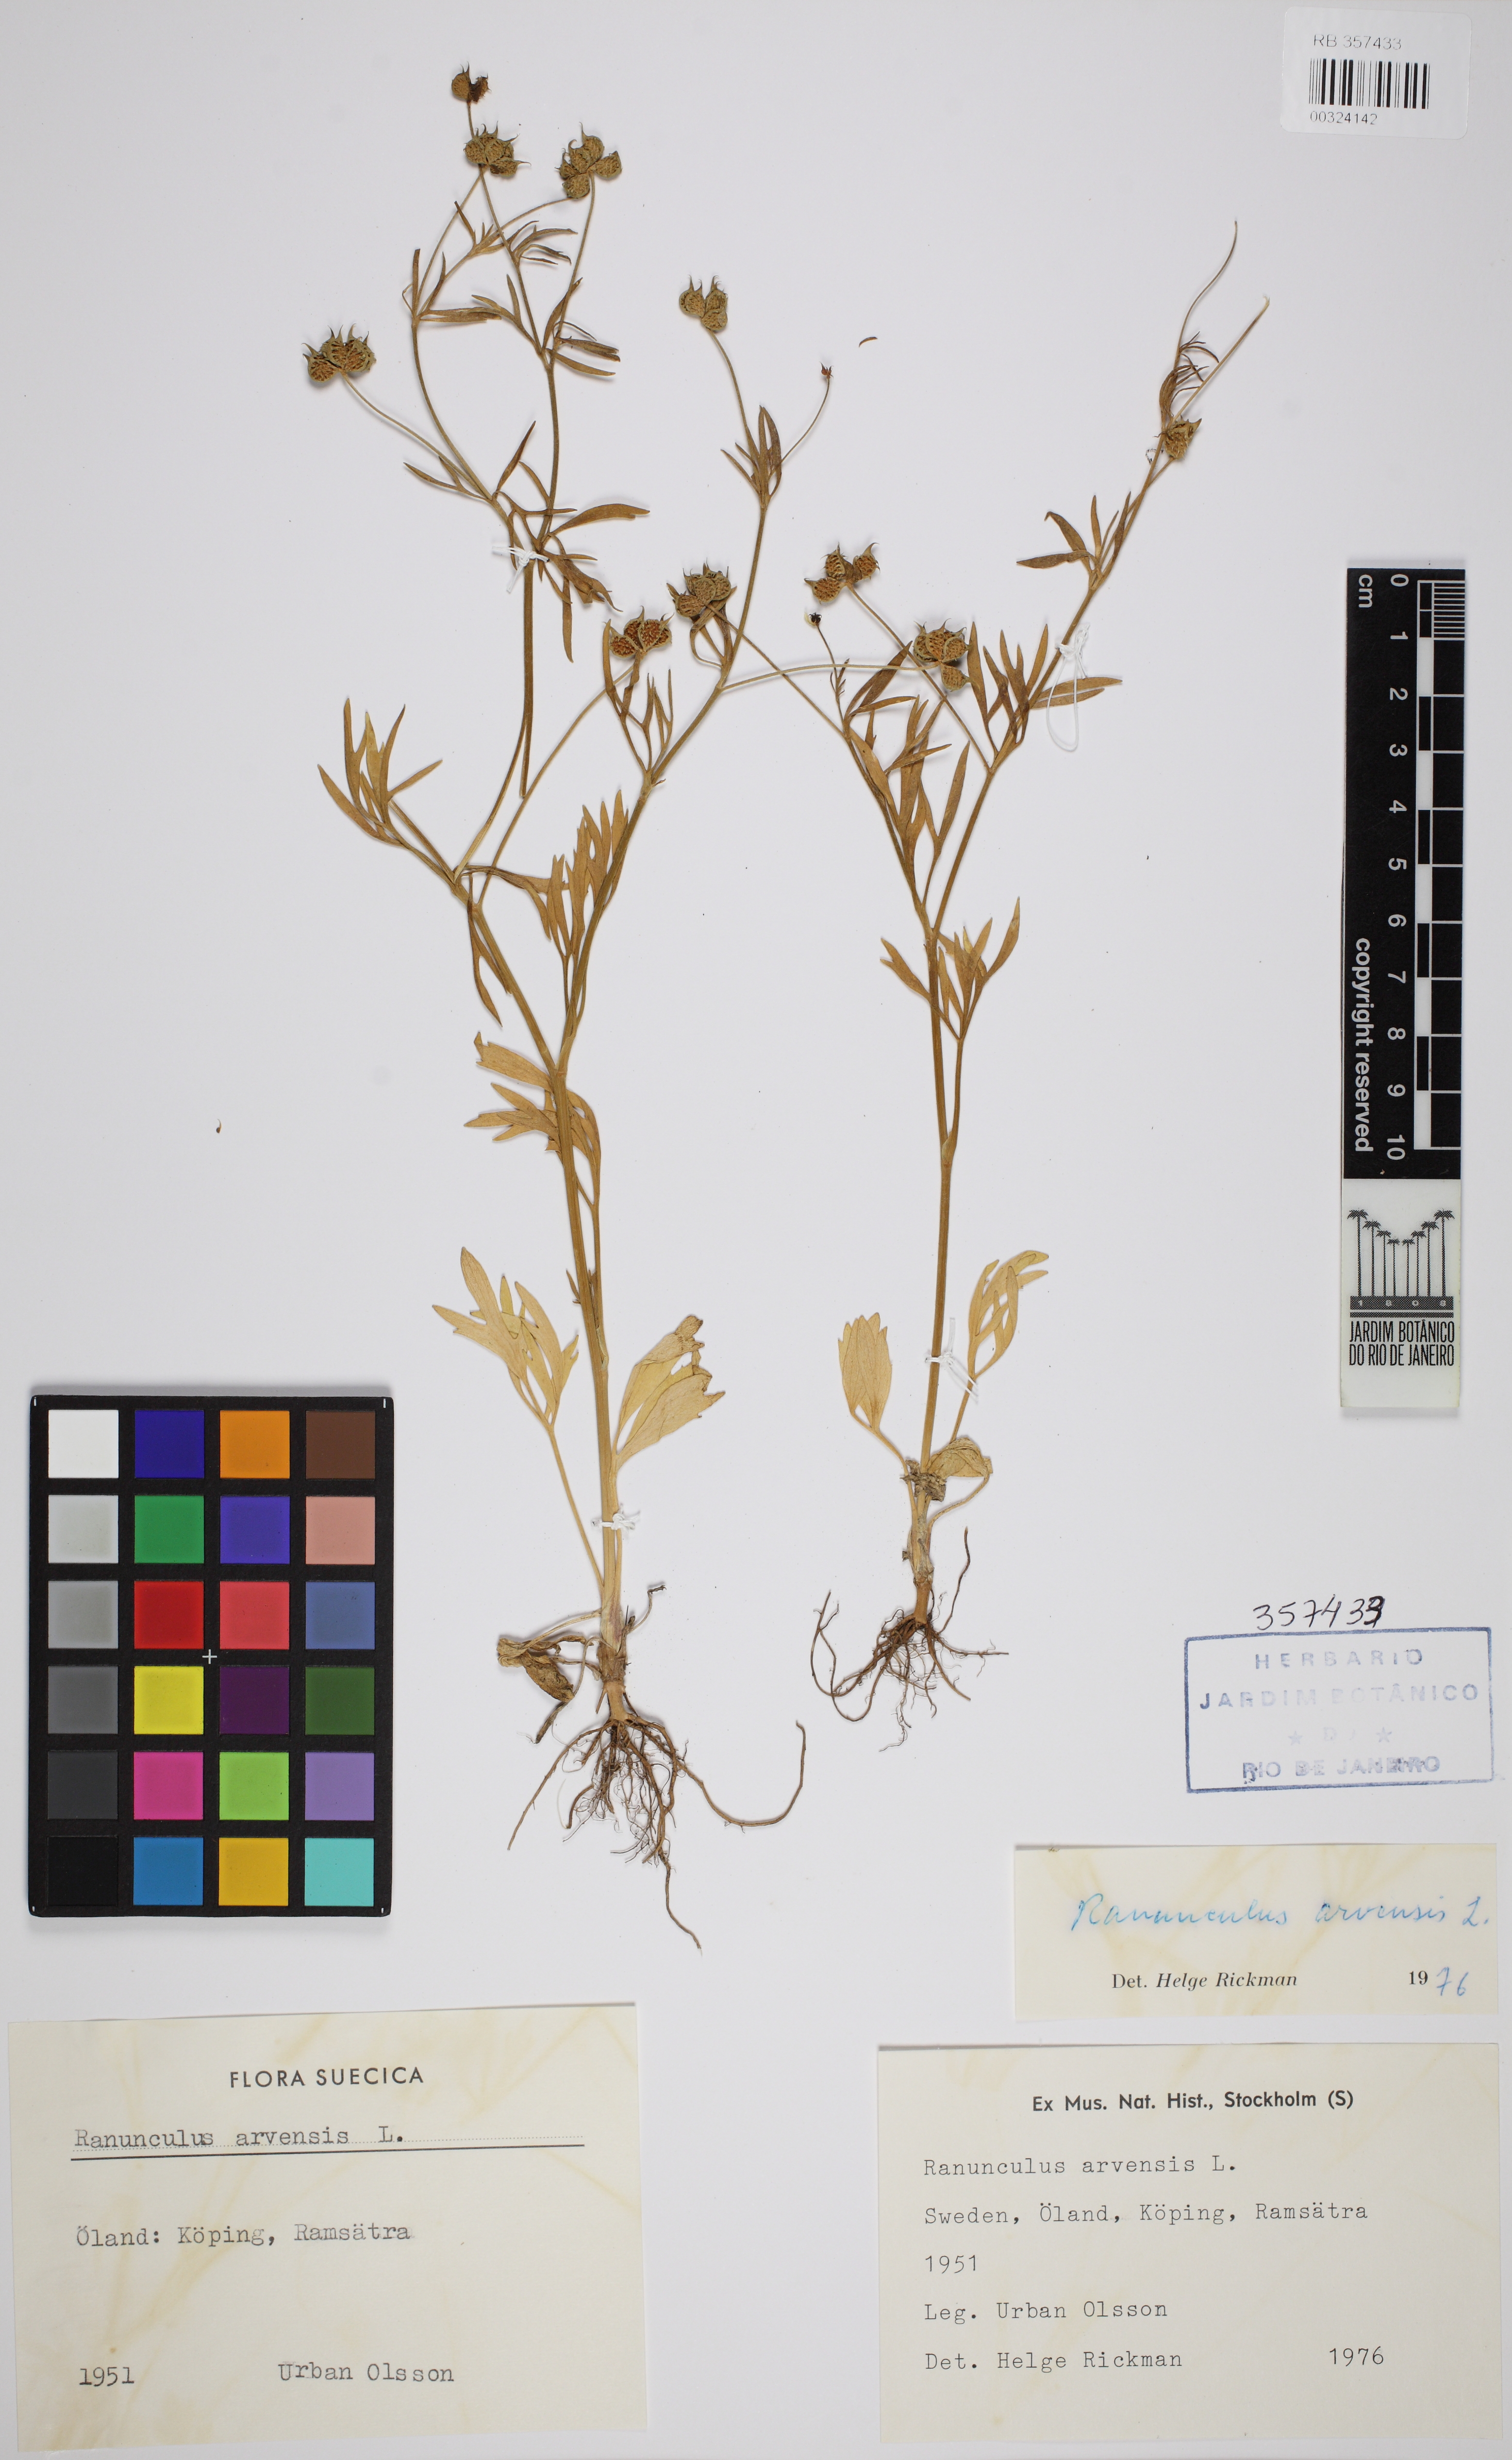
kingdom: Plantae
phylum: Tracheophyta
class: Magnoliopsida
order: Ranunculales
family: Ranunculaceae
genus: Ranunculus
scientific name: Ranunculus arvensis
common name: Corn buttercup
